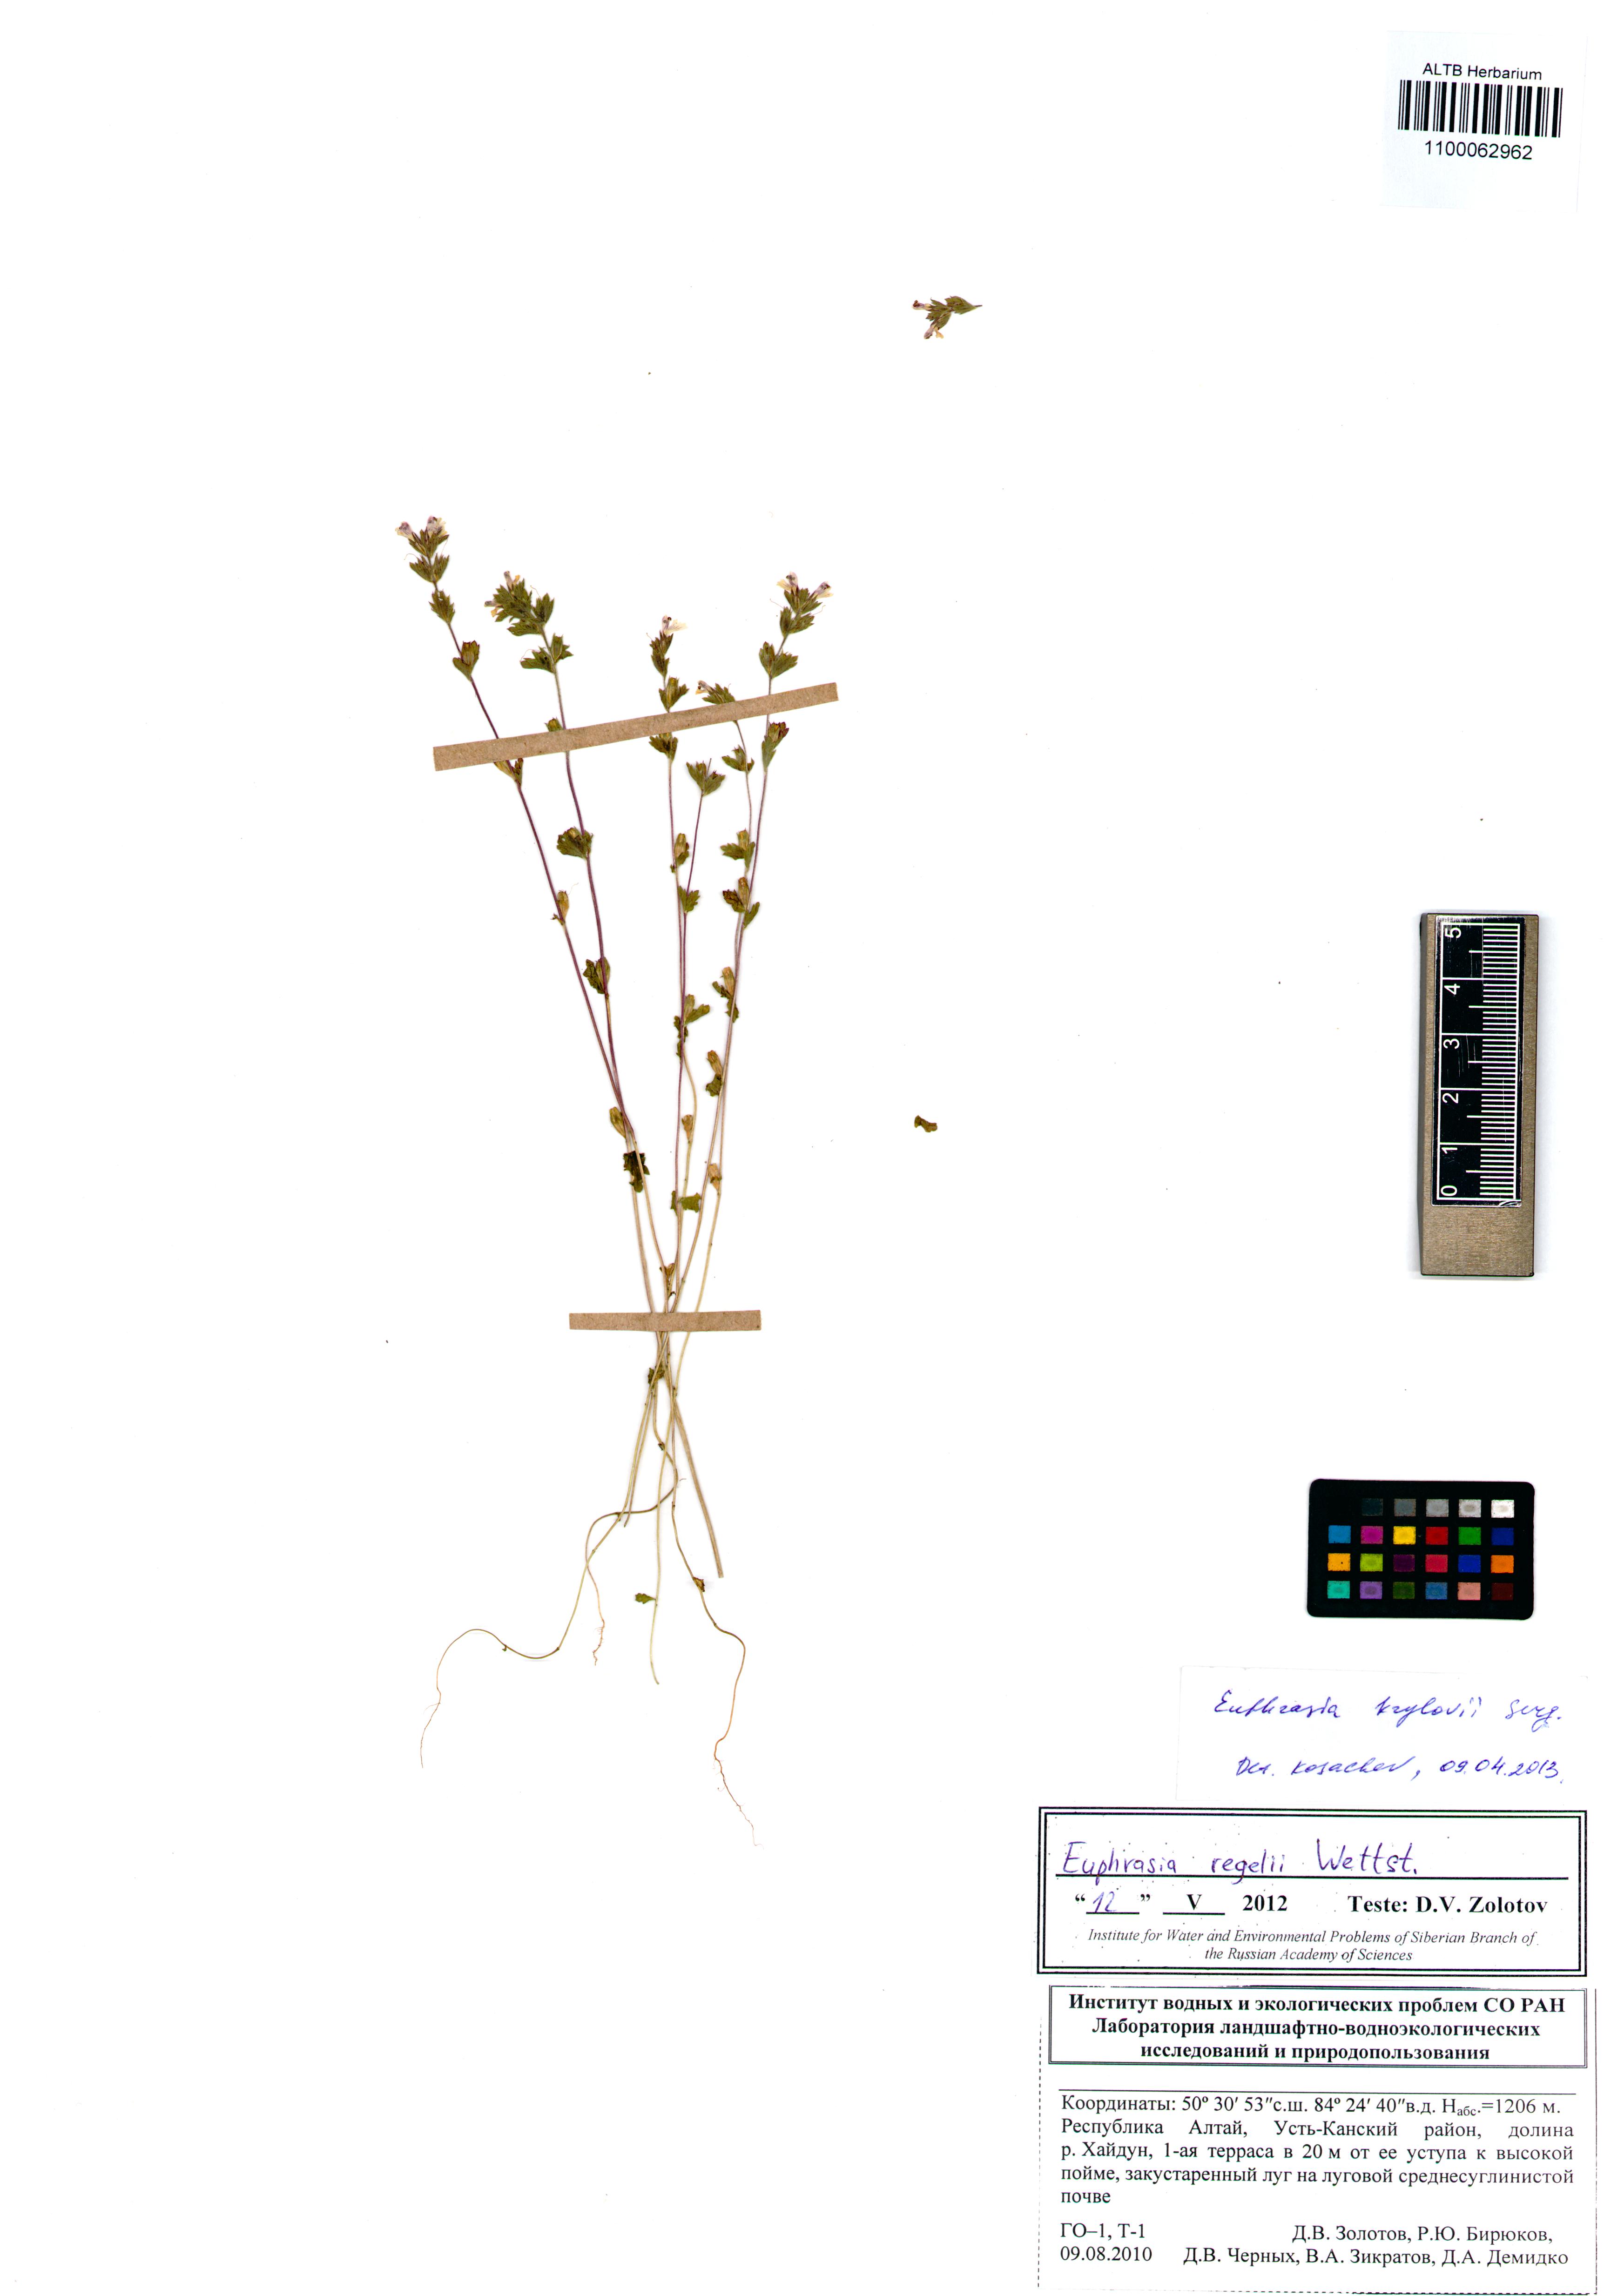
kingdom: Plantae
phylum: Tracheophyta
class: Magnoliopsida
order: Lamiales
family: Orobanchaceae
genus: Euphrasia
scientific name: Euphrasia krylovii
